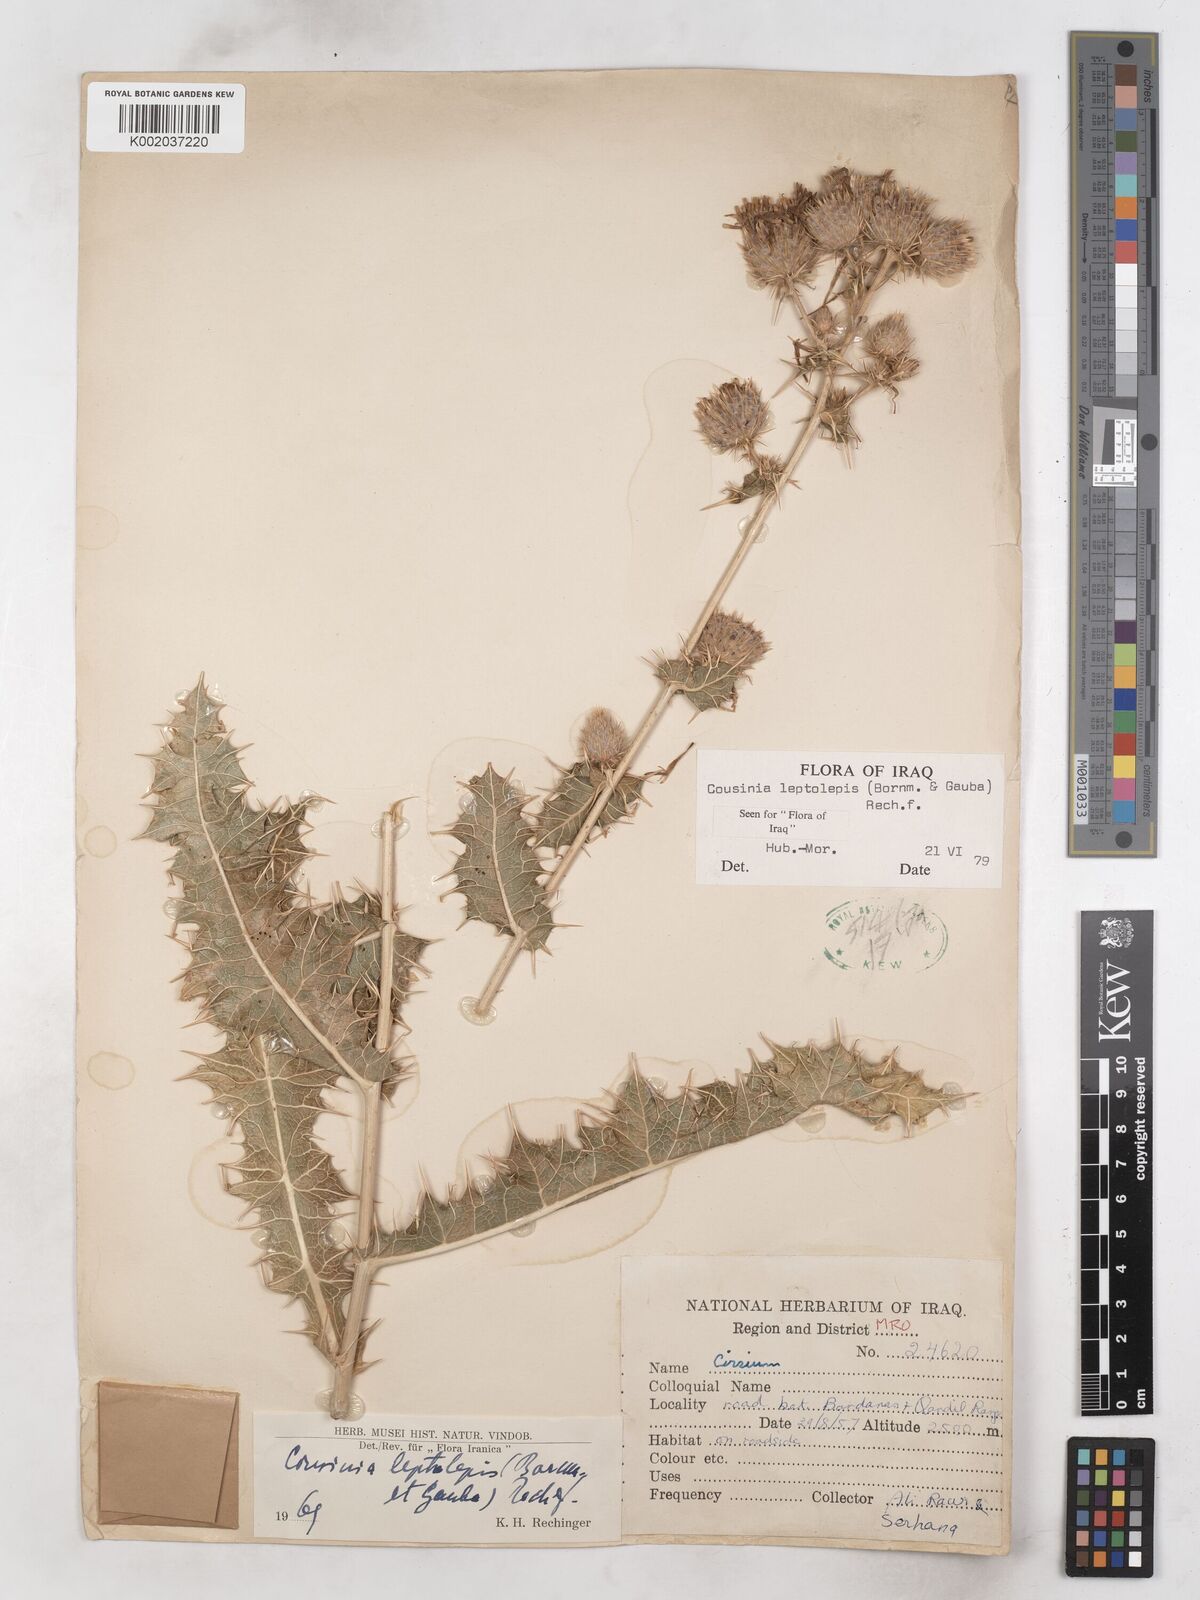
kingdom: Plantae
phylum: Tracheophyta
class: Magnoliopsida
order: Asterales
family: Asteraceae
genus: Cousinia
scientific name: Cousinia leptolepis
